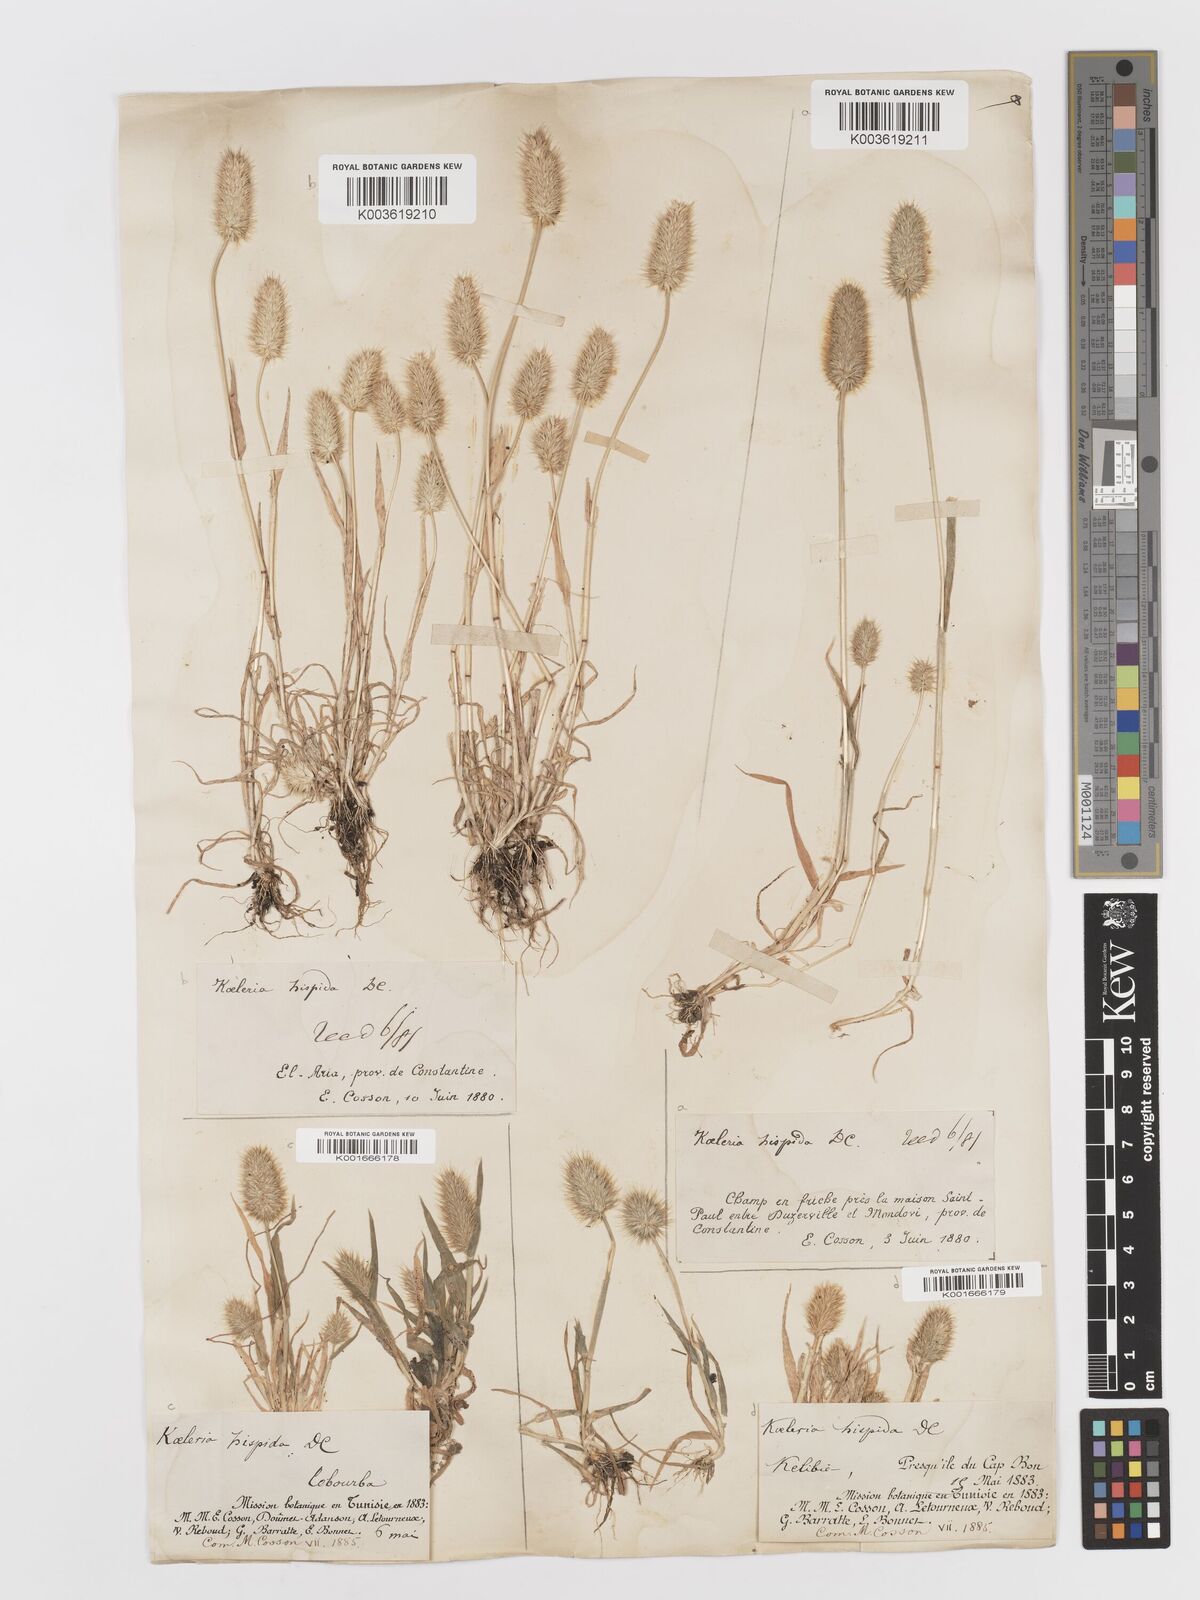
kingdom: Plantae
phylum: Tracheophyta
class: Liliopsida
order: Poales
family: Poaceae
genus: Rostraria
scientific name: Rostraria hispida
